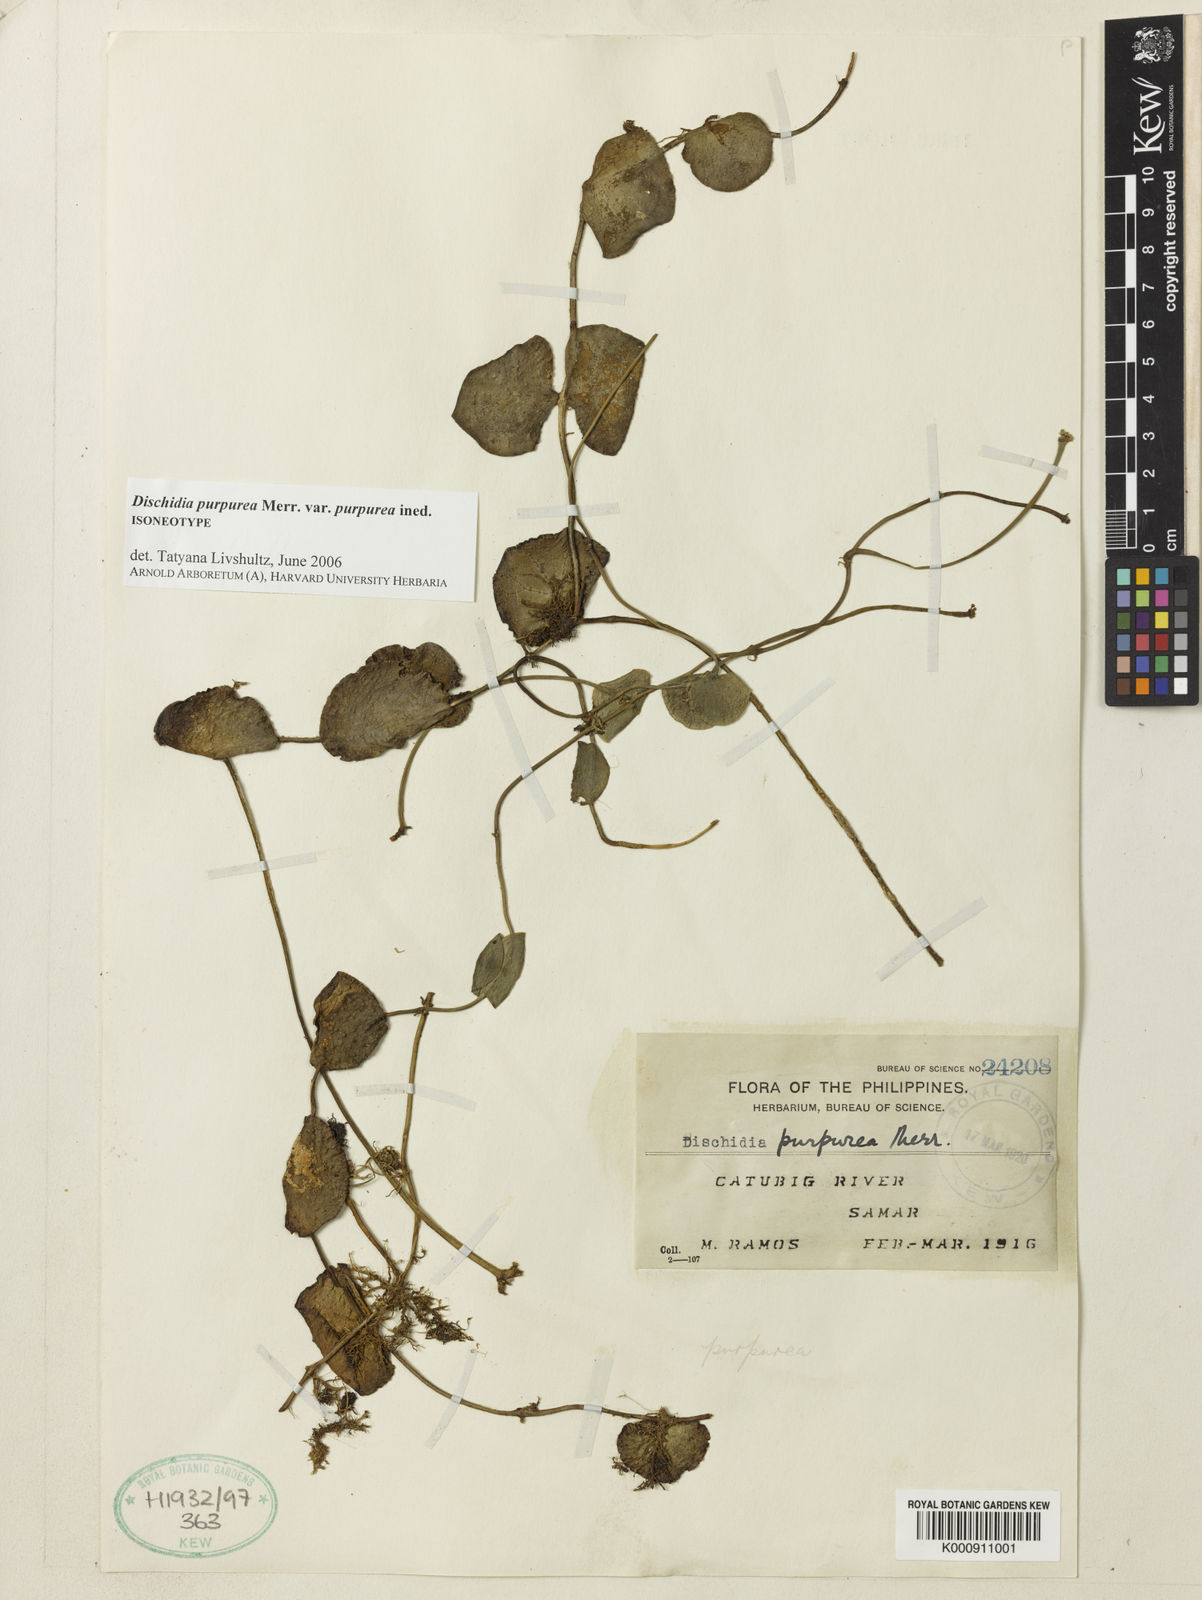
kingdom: Plantae
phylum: Tracheophyta
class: Magnoliopsida
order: Gentianales
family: Apocynaceae
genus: Dischidia
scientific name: Dischidia purpurea
